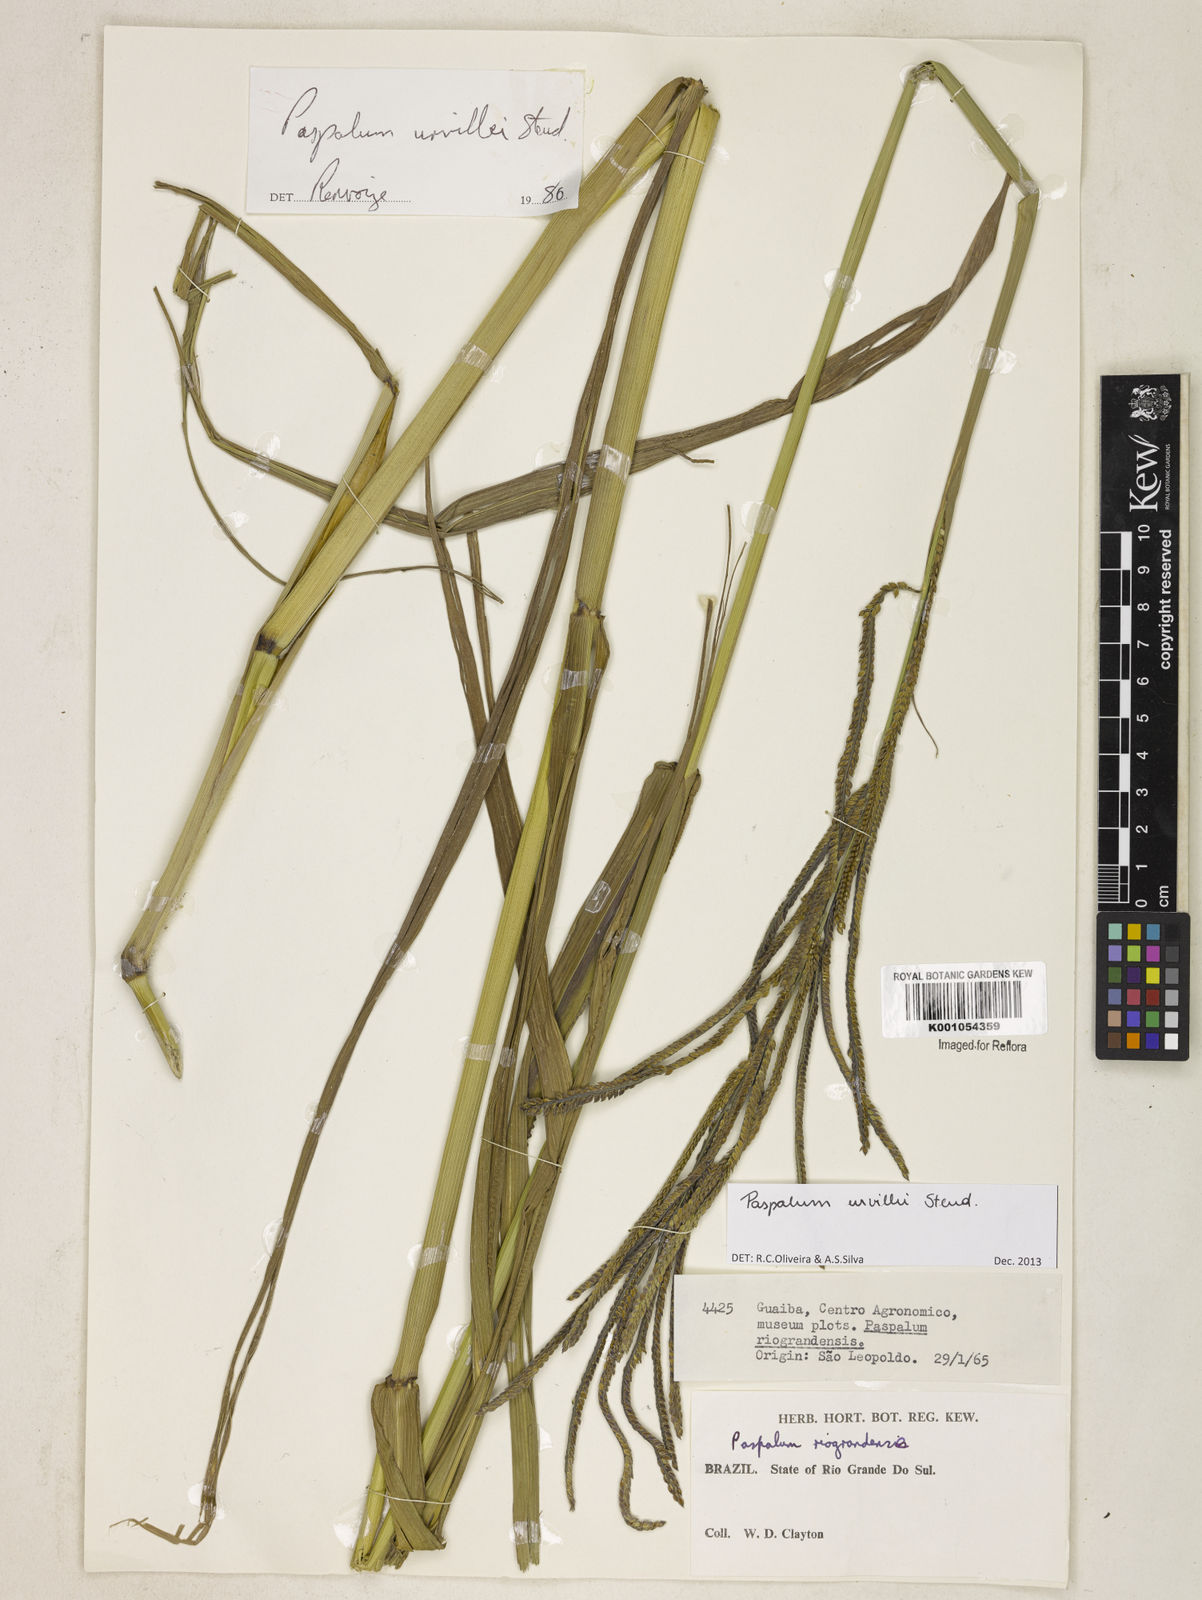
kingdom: Plantae
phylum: Tracheophyta
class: Liliopsida
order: Poales
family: Poaceae
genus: Paspalum
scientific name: Paspalum urvillei
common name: Vasey's grass
